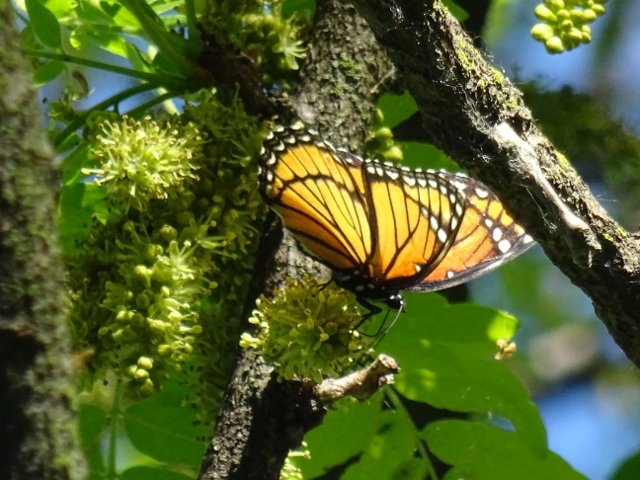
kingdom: Animalia
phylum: Arthropoda
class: Insecta
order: Lepidoptera
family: Nymphalidae
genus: Limenitis
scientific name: Limenitis archippus
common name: Viceroy
